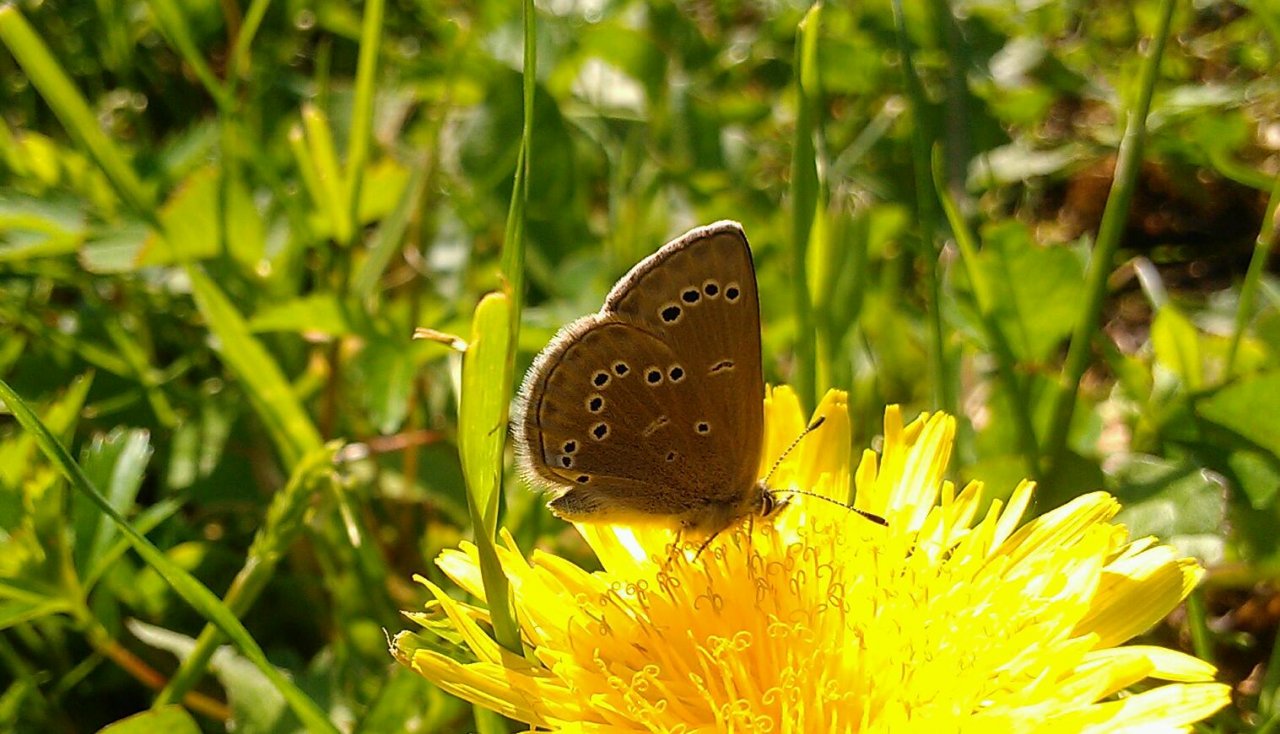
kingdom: Animalia
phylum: Arthropoda
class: Insecta
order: Lepidoptera
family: Lycaenidae
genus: Glaucopsyche
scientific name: Glaucopsyche lygdamus
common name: Silvery Blue
